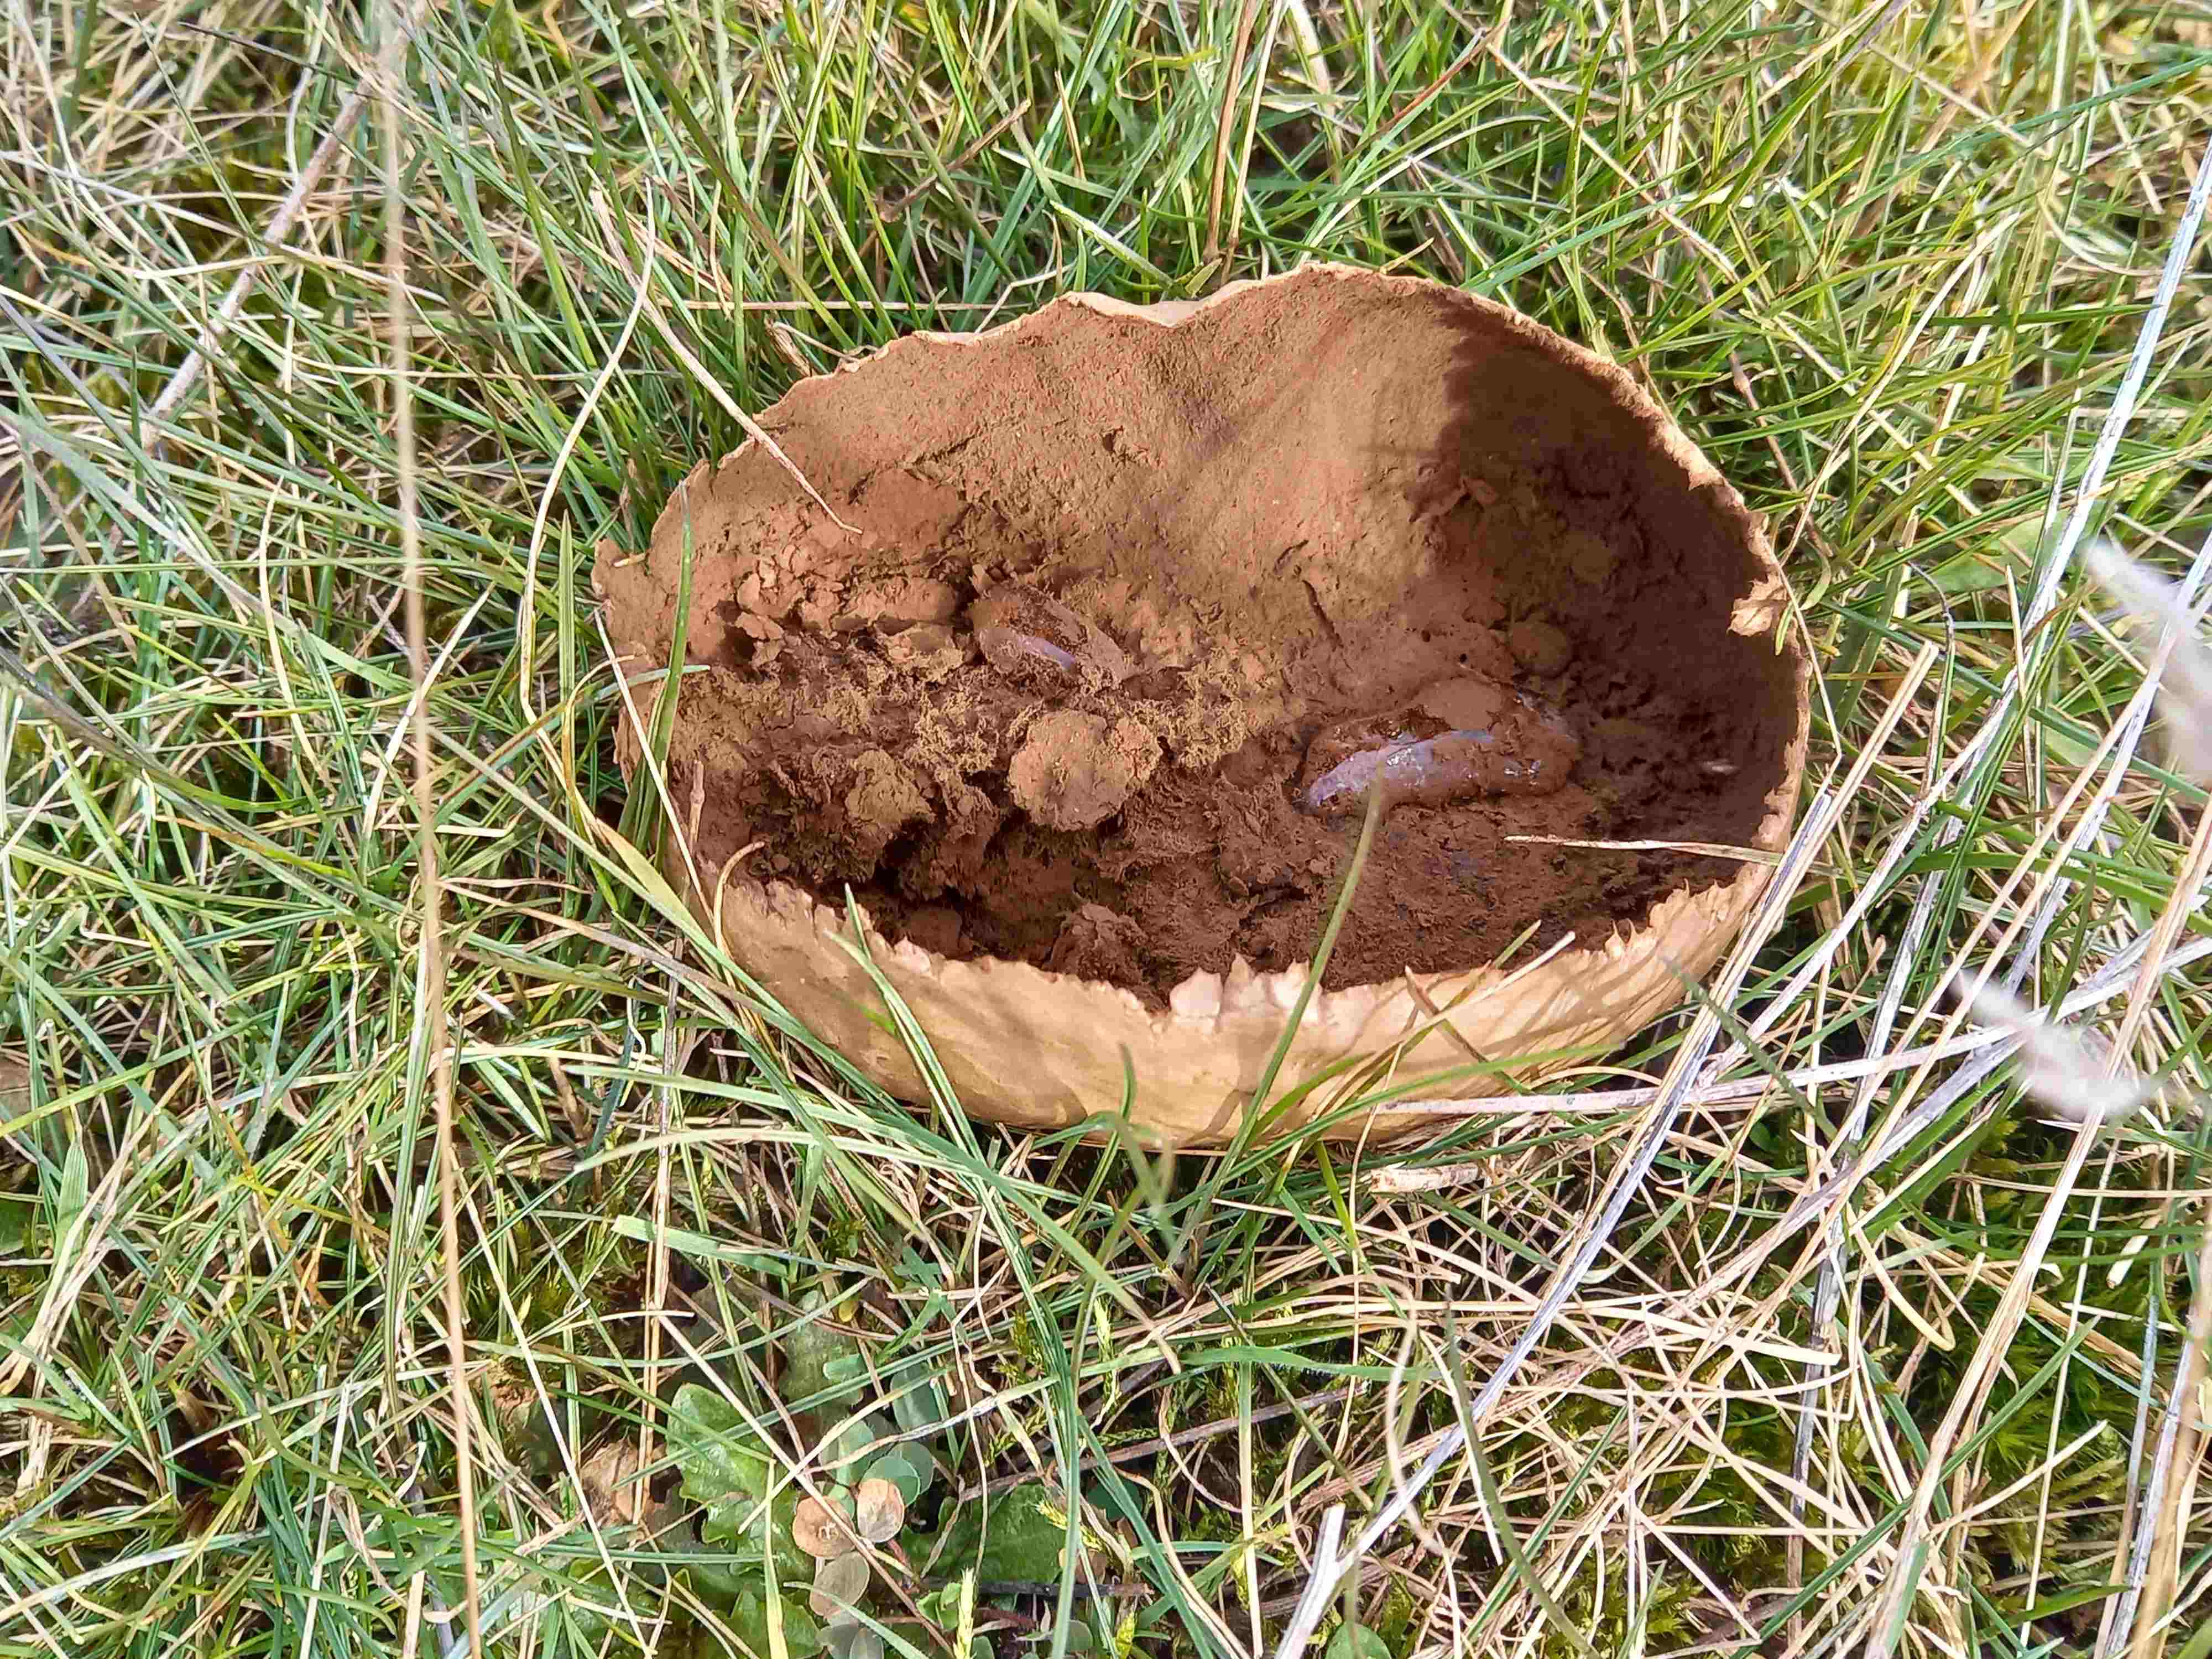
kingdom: Fungi
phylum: Basidiomycota
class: Agaricomycetes
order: Agaricales
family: Lycoperdaceae
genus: Bovistella
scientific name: Bovistella utriformis
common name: skællet støvbold
